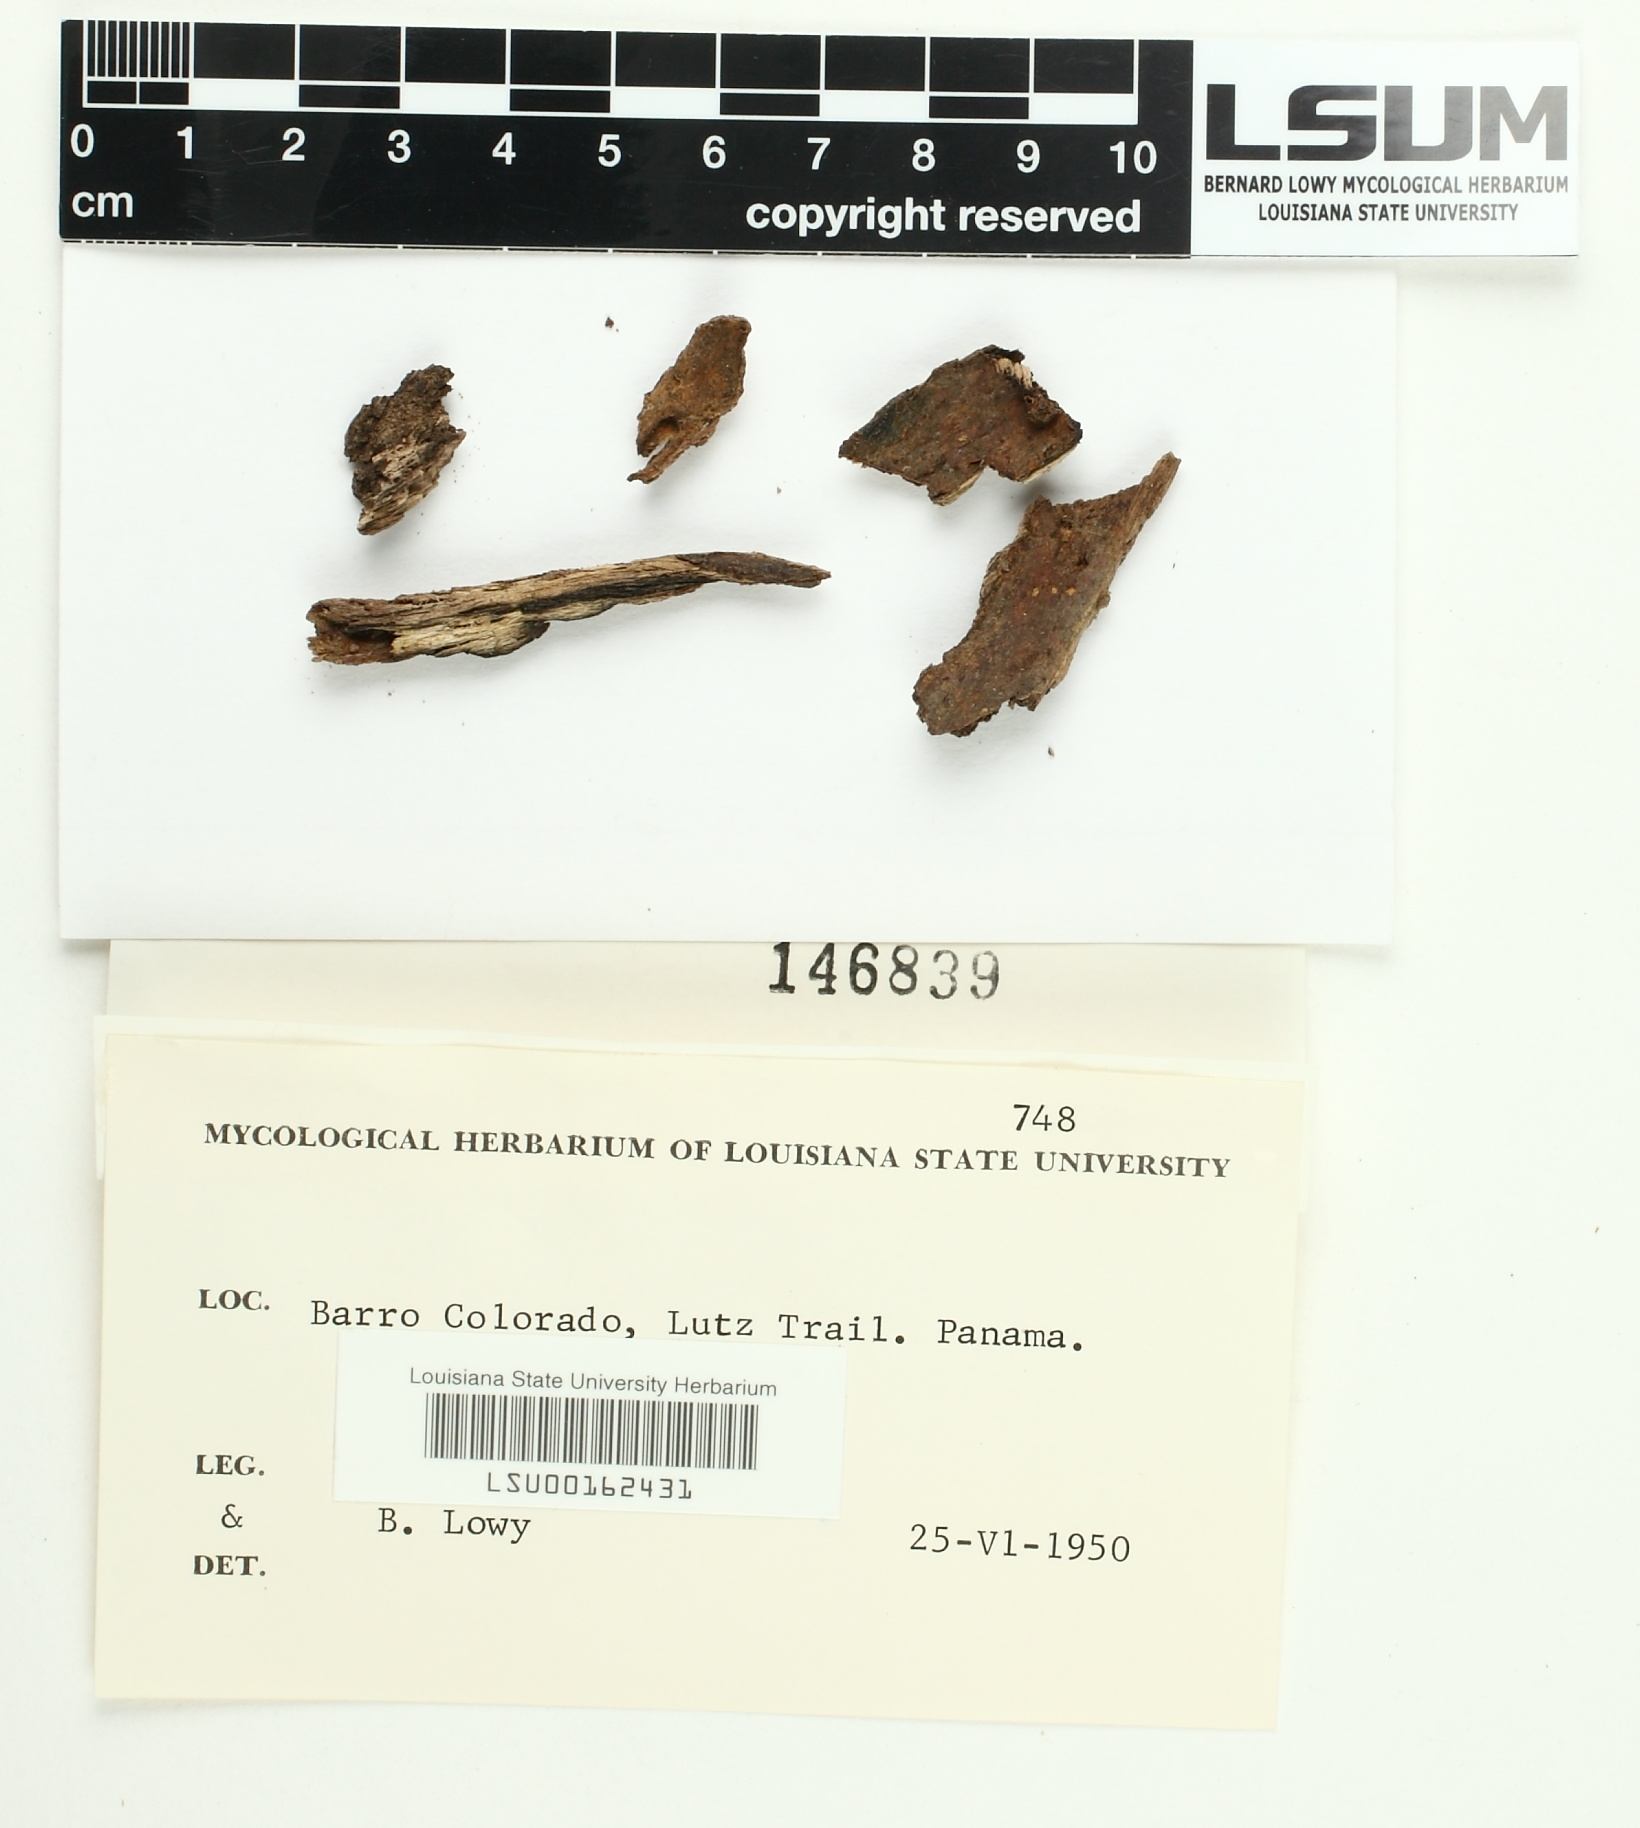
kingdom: Fungi
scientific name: Fungi
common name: Fungi
